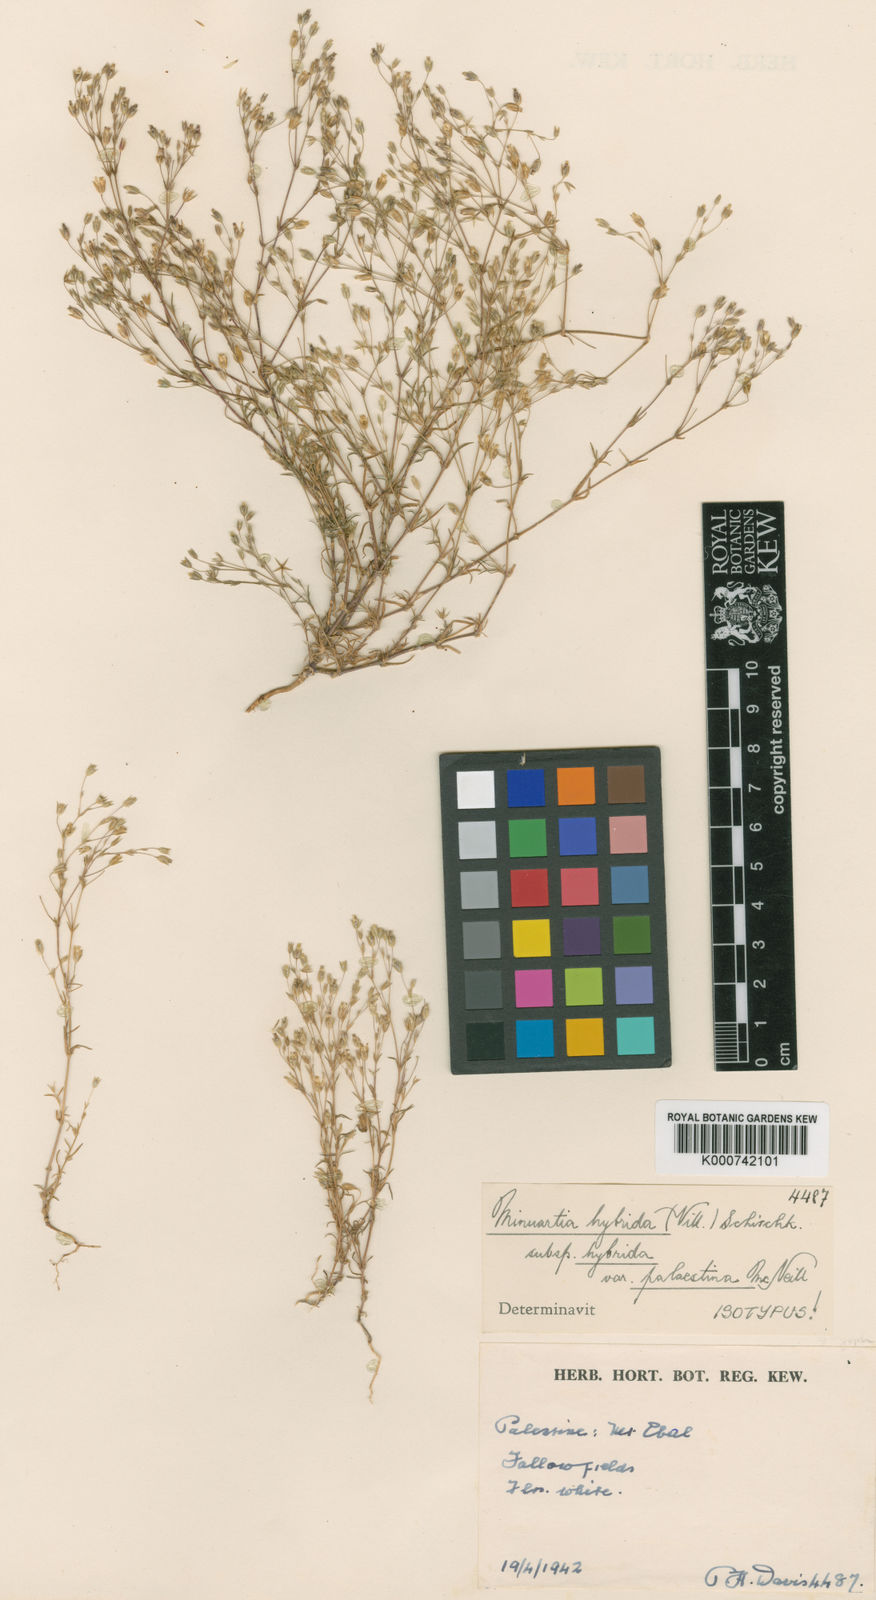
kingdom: Plantae
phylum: Tracheophyta
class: Magnoliopsida
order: Caryophyllales
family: Caryophyllaceae
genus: Sabulina
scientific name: Sabulina tenuifolia
